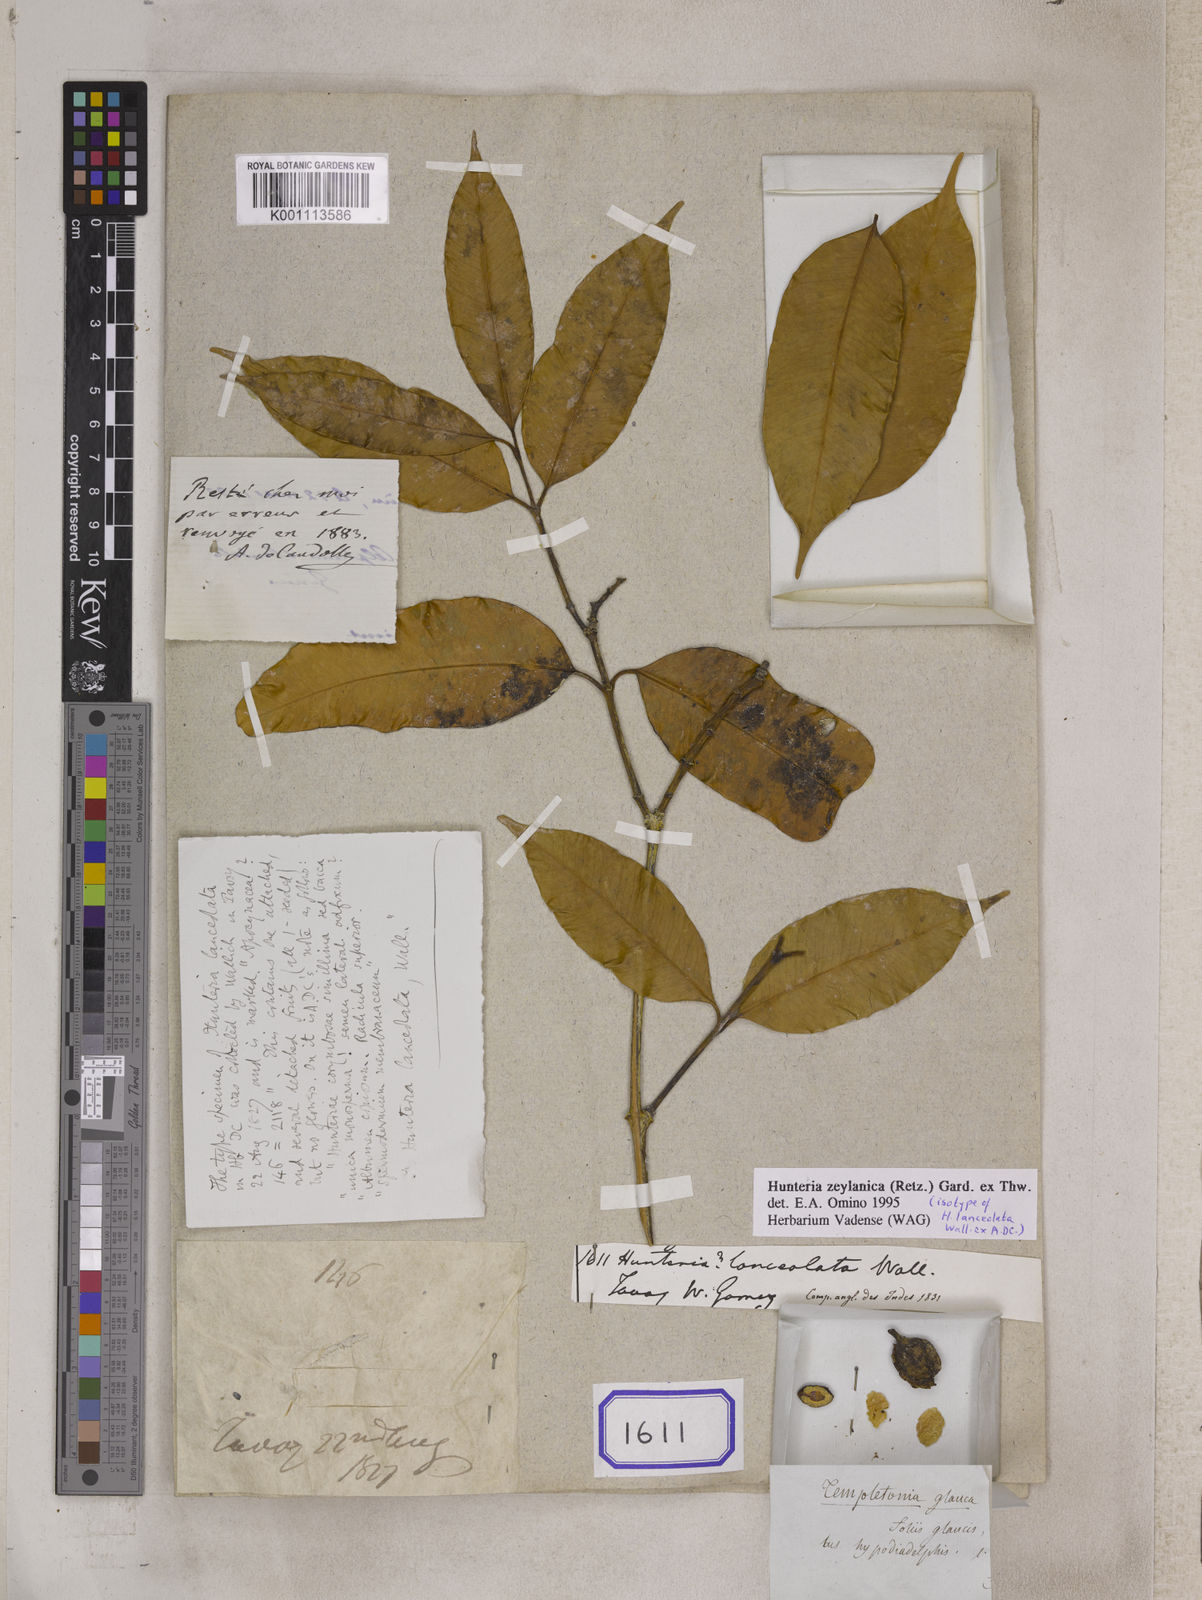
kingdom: Plantae
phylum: Tracheophyta
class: Magnoliopsida
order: Gentianales
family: Apocynaceae
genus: Hunteria
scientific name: Hunteria
